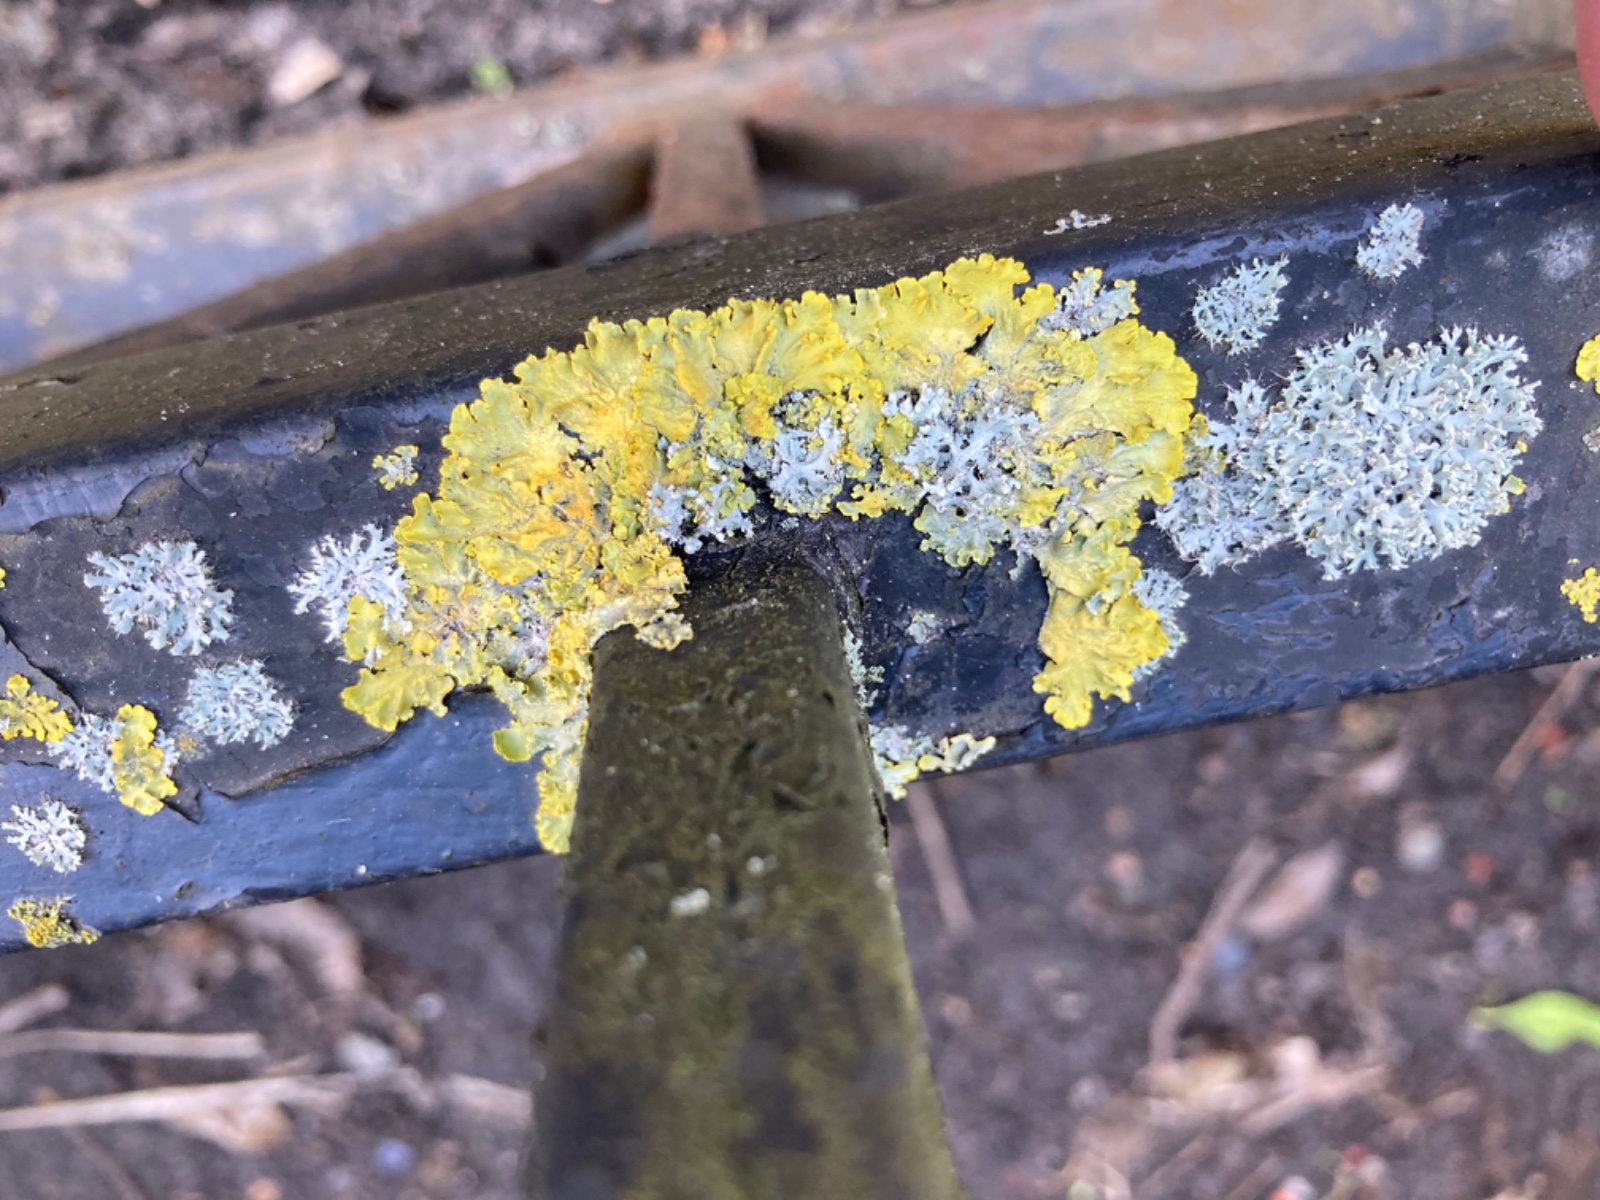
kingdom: Fungi
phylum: Ascomycota
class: Lecanoromycetes
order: Teloschistales
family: Teloschistaceae
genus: Xanthoria
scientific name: Xanthoria parietina
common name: almindelig væggelav
